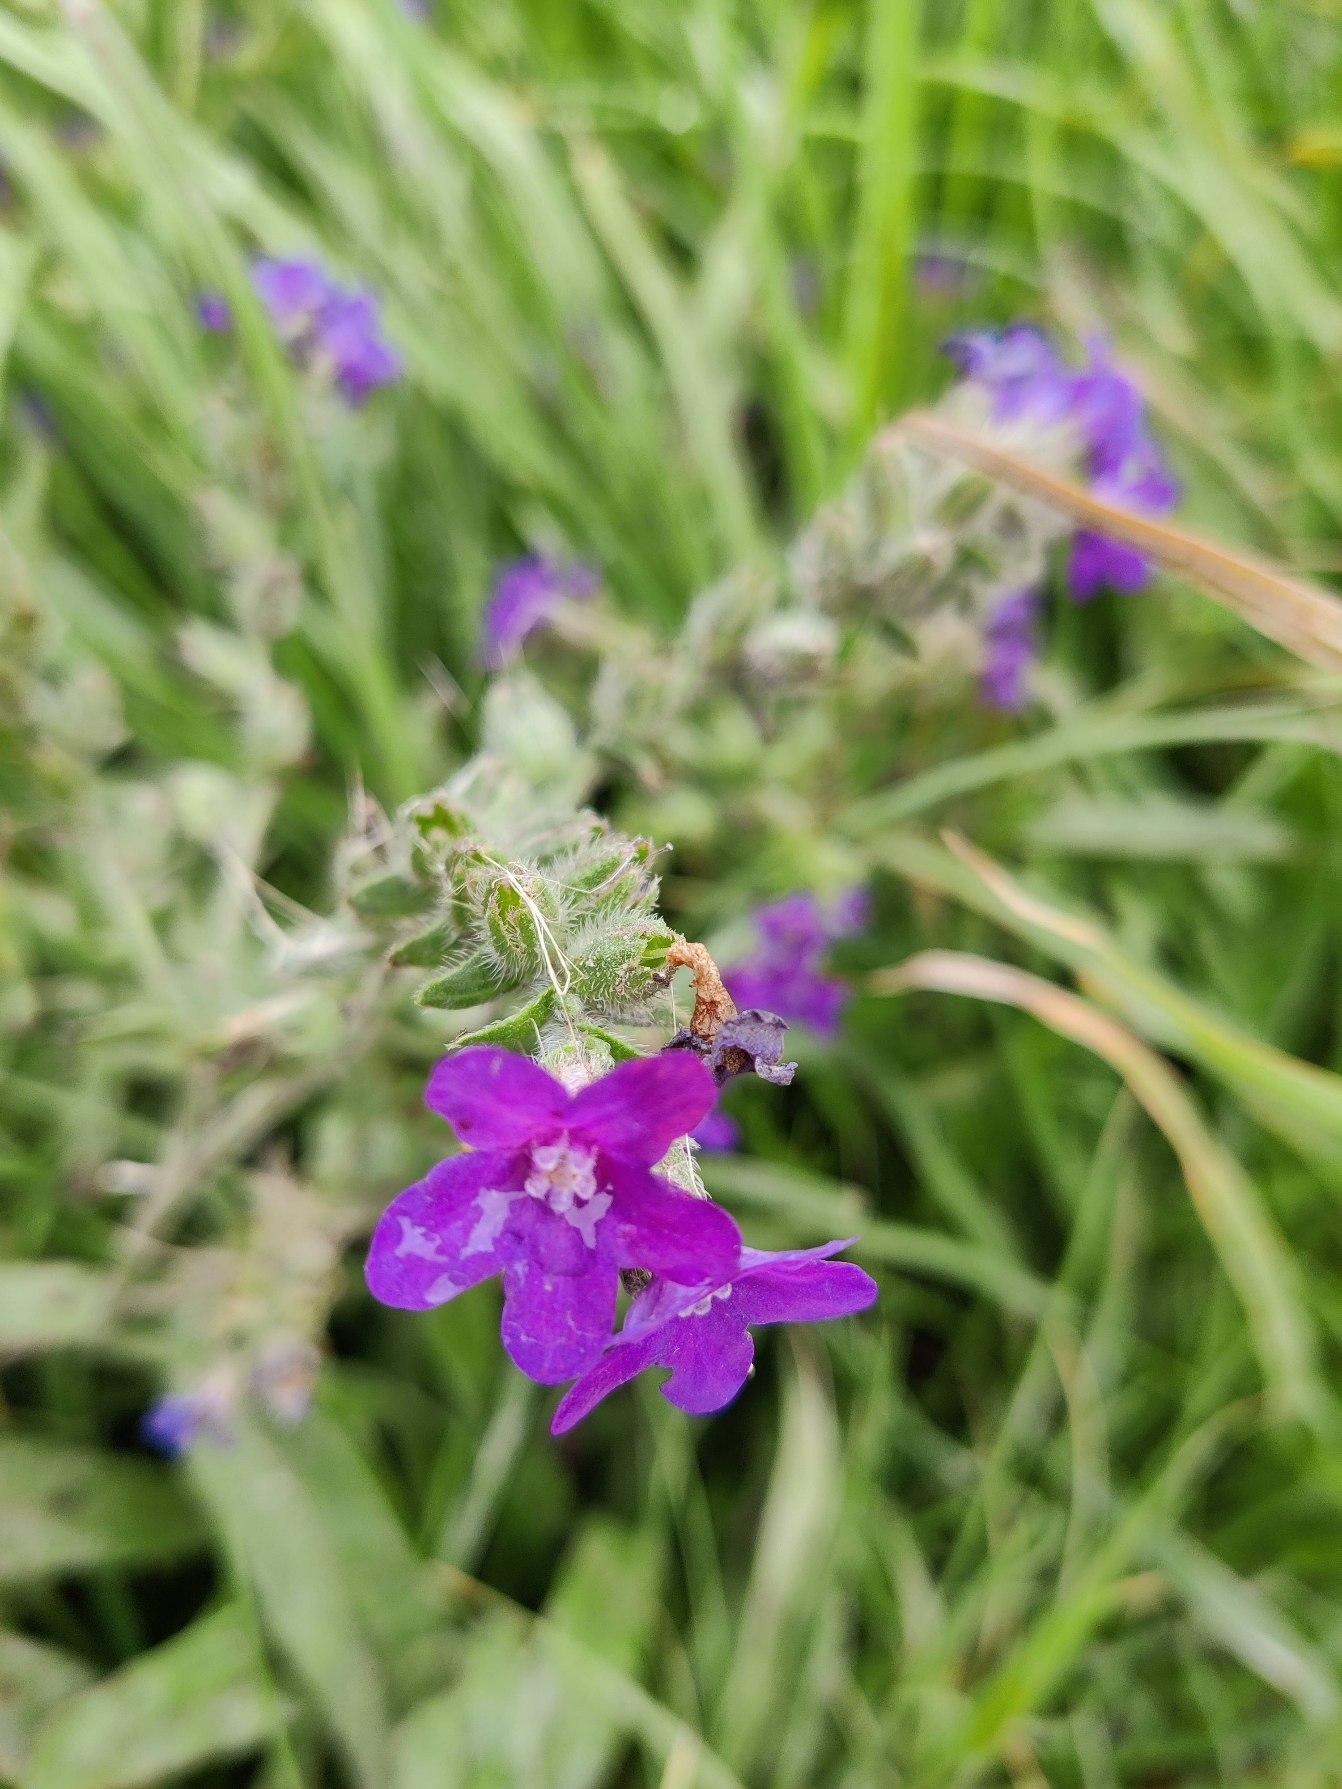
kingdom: Plantae
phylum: Tracheophyta
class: Magnoliopsida
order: Boraginales
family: Boraginaceae
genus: Anchusa
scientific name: Anchusa officinalis
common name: Læge-oksetunge
